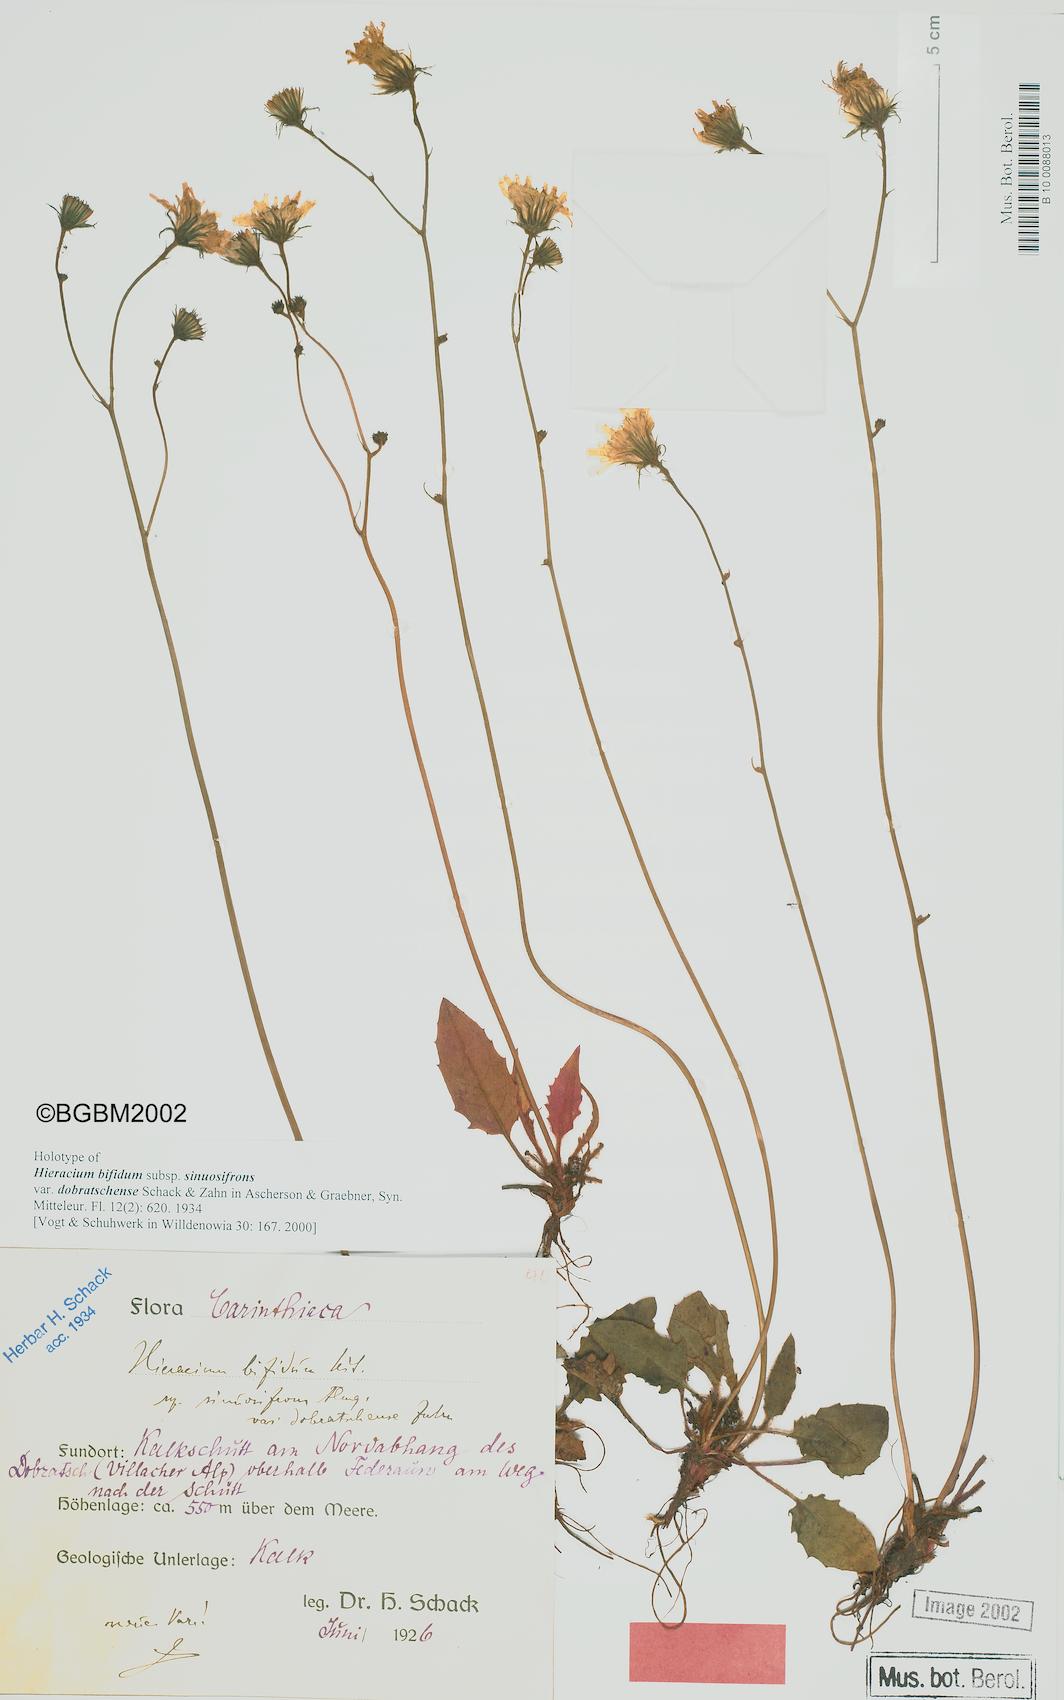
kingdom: Plantae
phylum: Tracheophyta
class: Magnoliopsida
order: Asterales
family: Asteraceae
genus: Hieracium
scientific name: Hieracium bifidum
